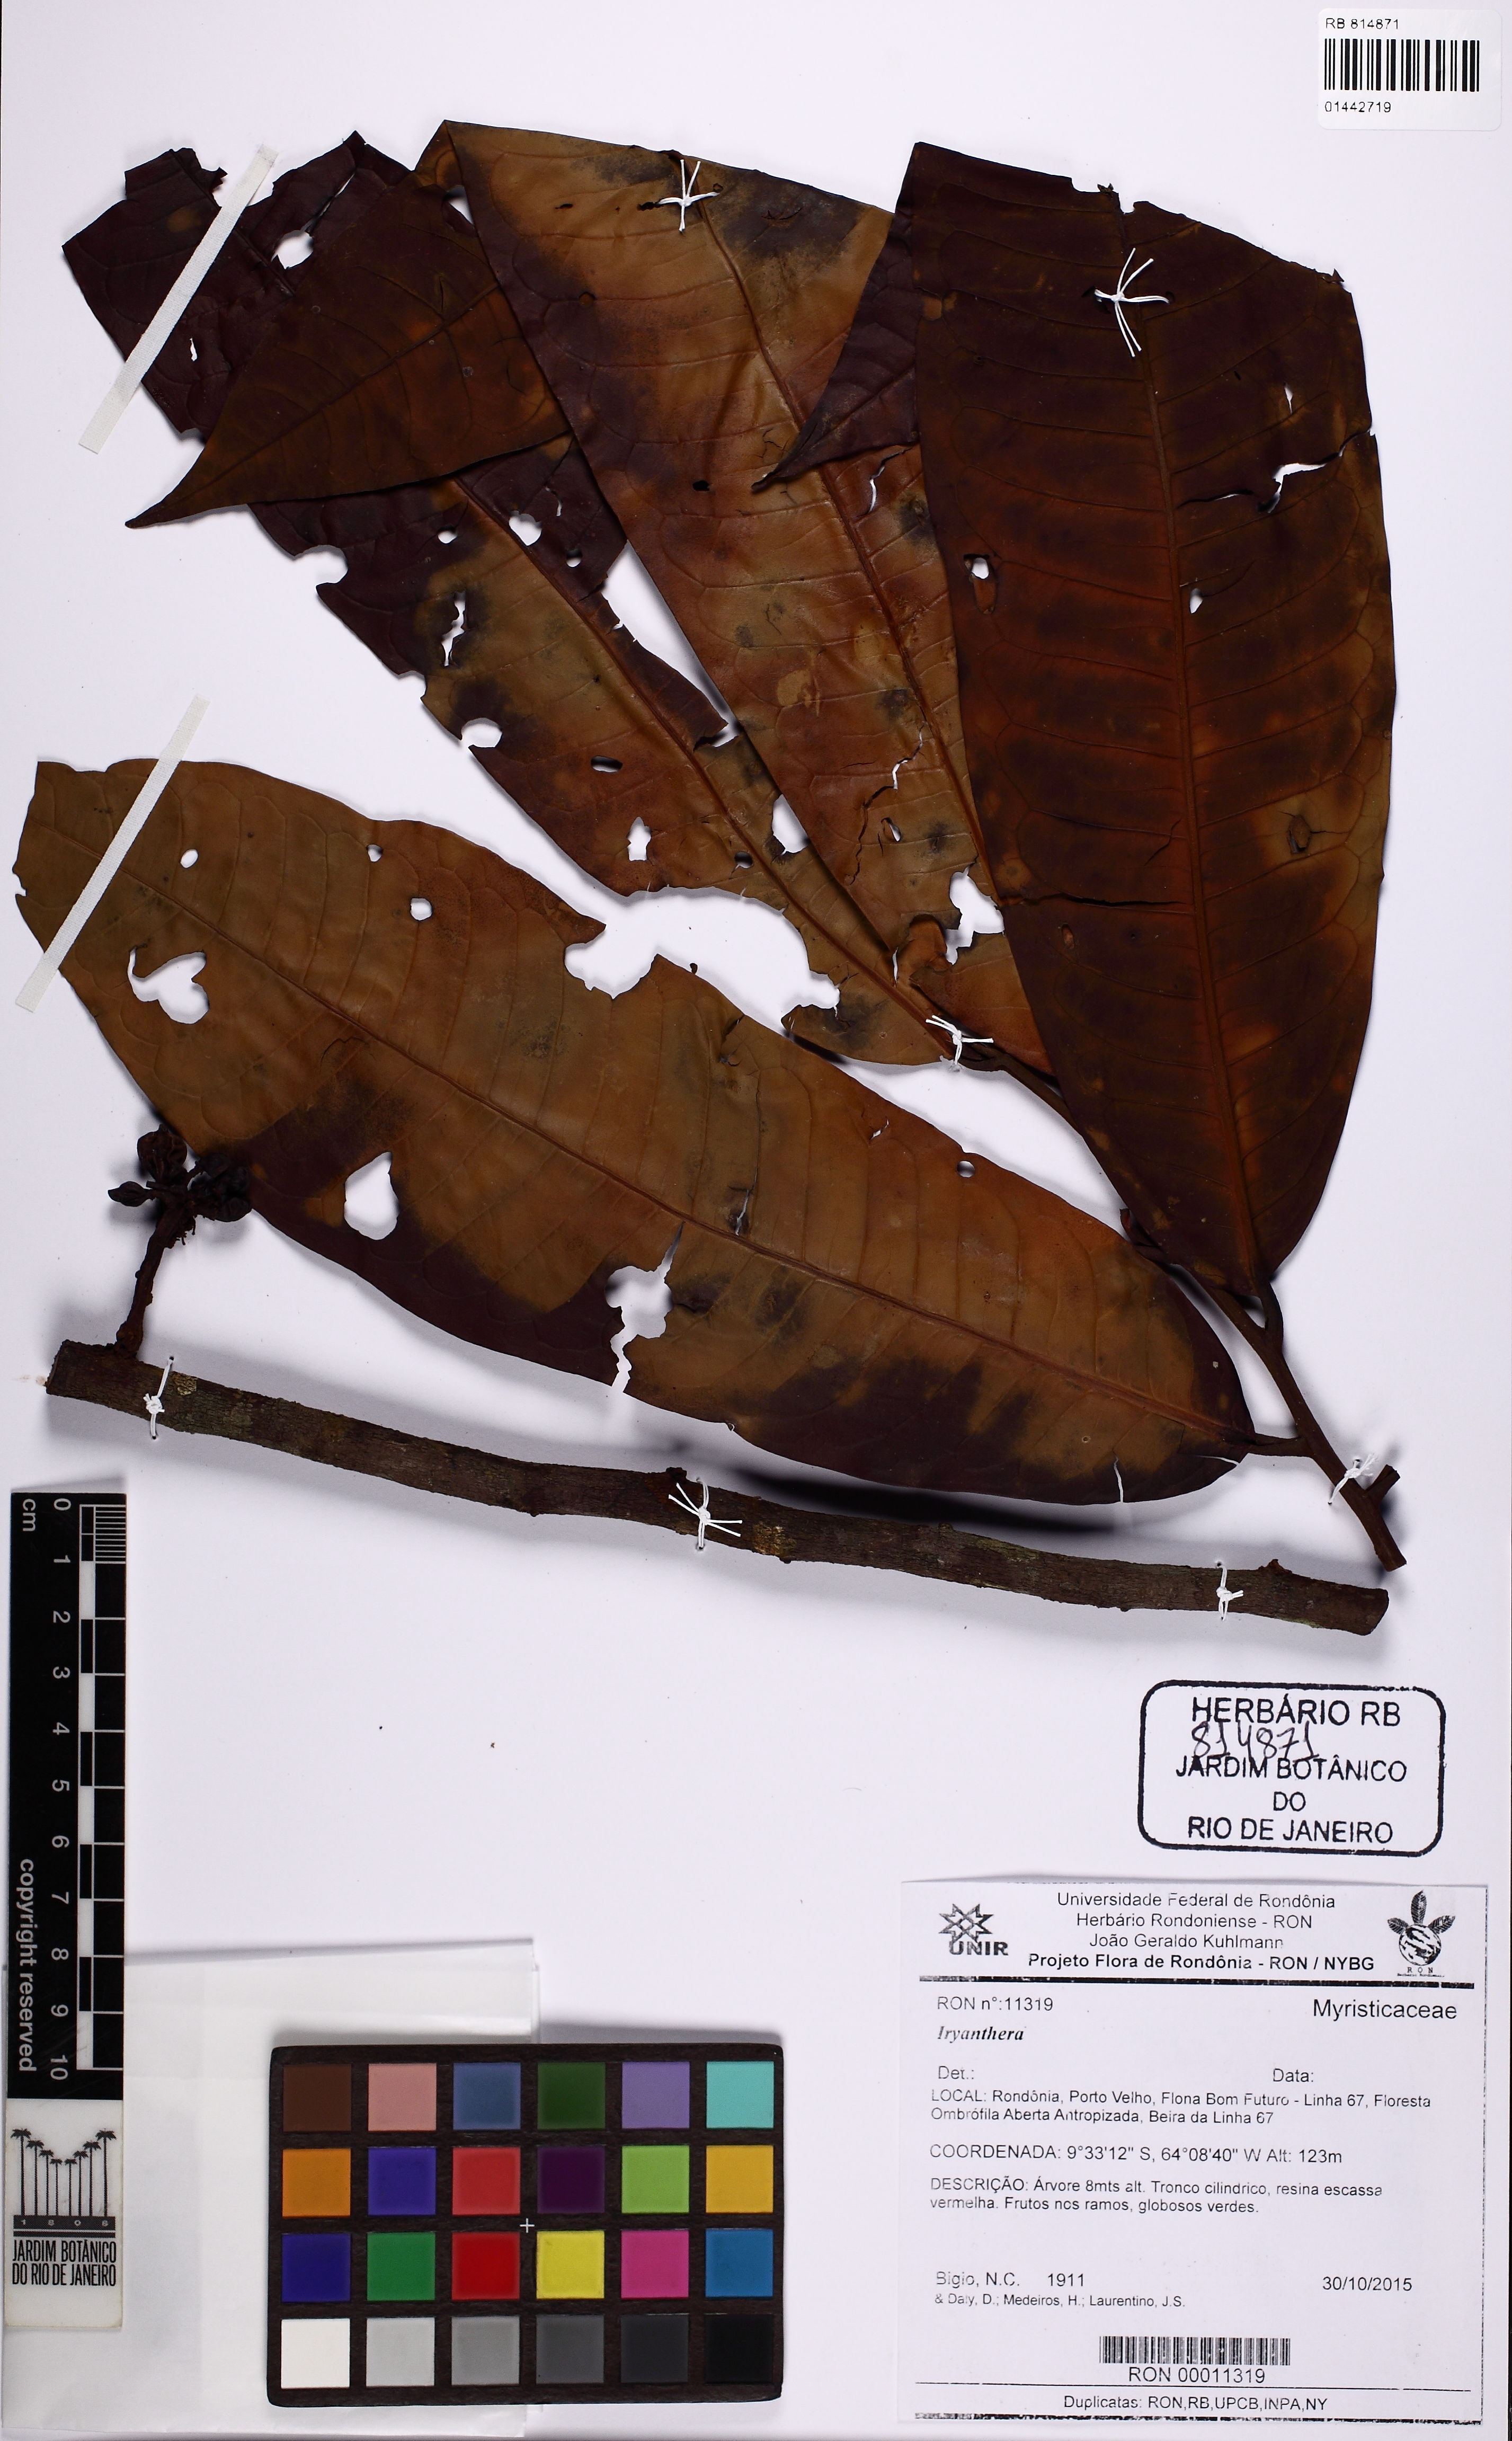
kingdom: Plantae
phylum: Tracheophyta
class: Magnoliopsida
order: Magnoliales
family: Myristicaceae
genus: Iryanthera
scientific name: Iryanthera
